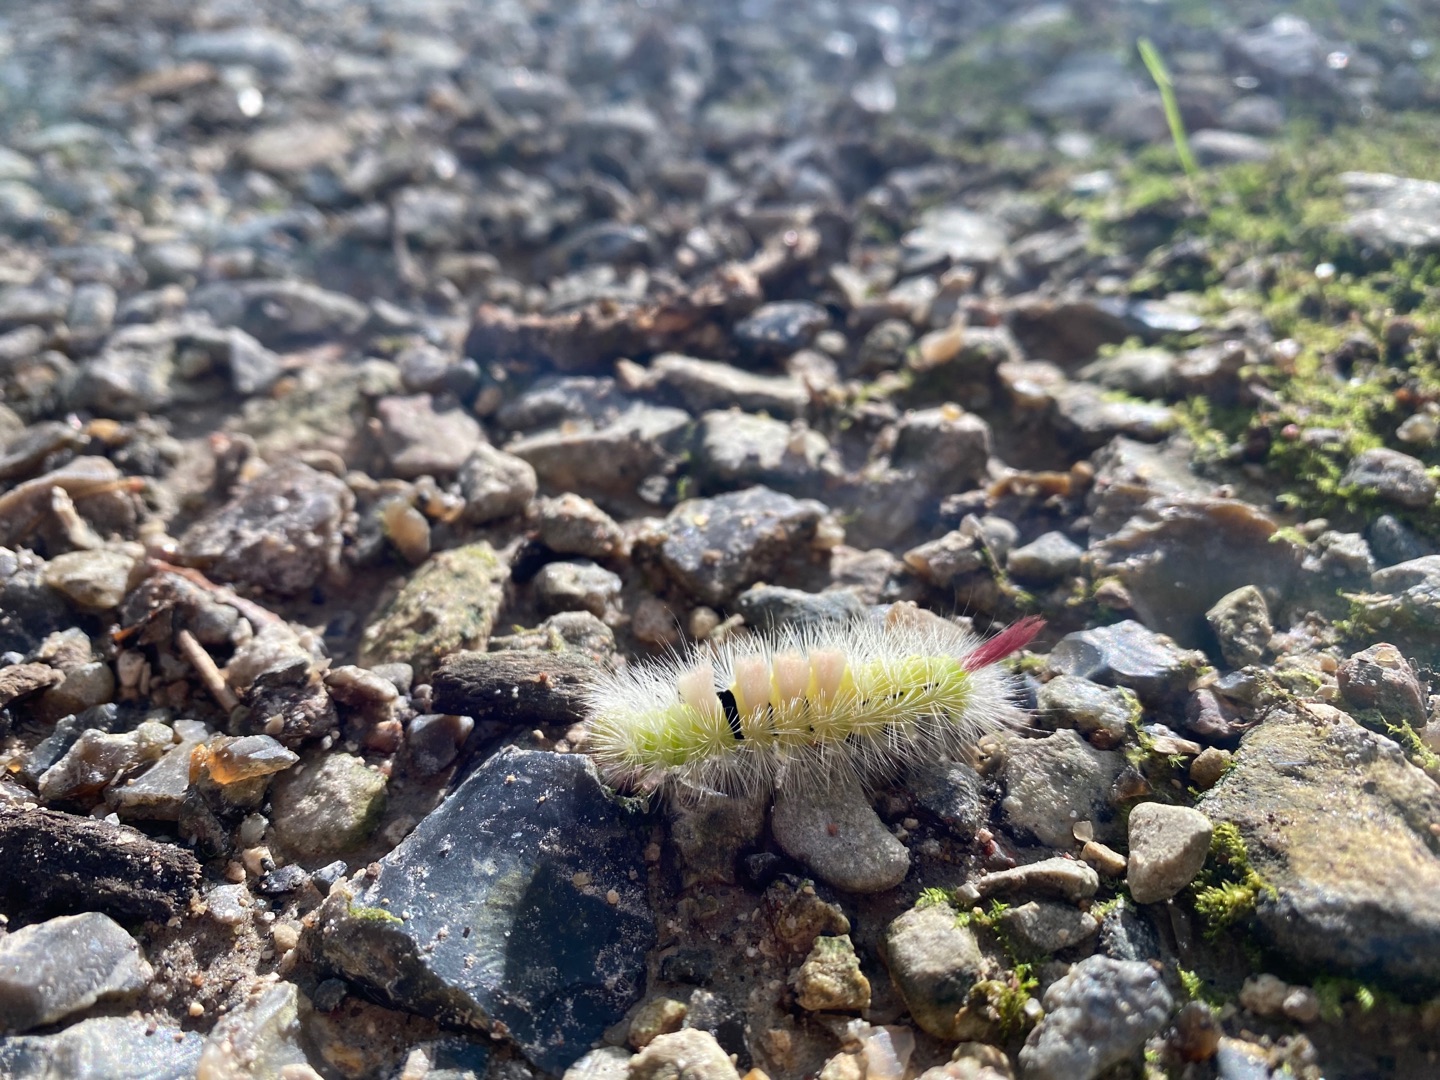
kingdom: Animalia
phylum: Arthropoda
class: Insecta
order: Lepidoptera
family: Erebidae
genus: Calliteara
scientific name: Calliteara pudibunda
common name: Bøgenonne
